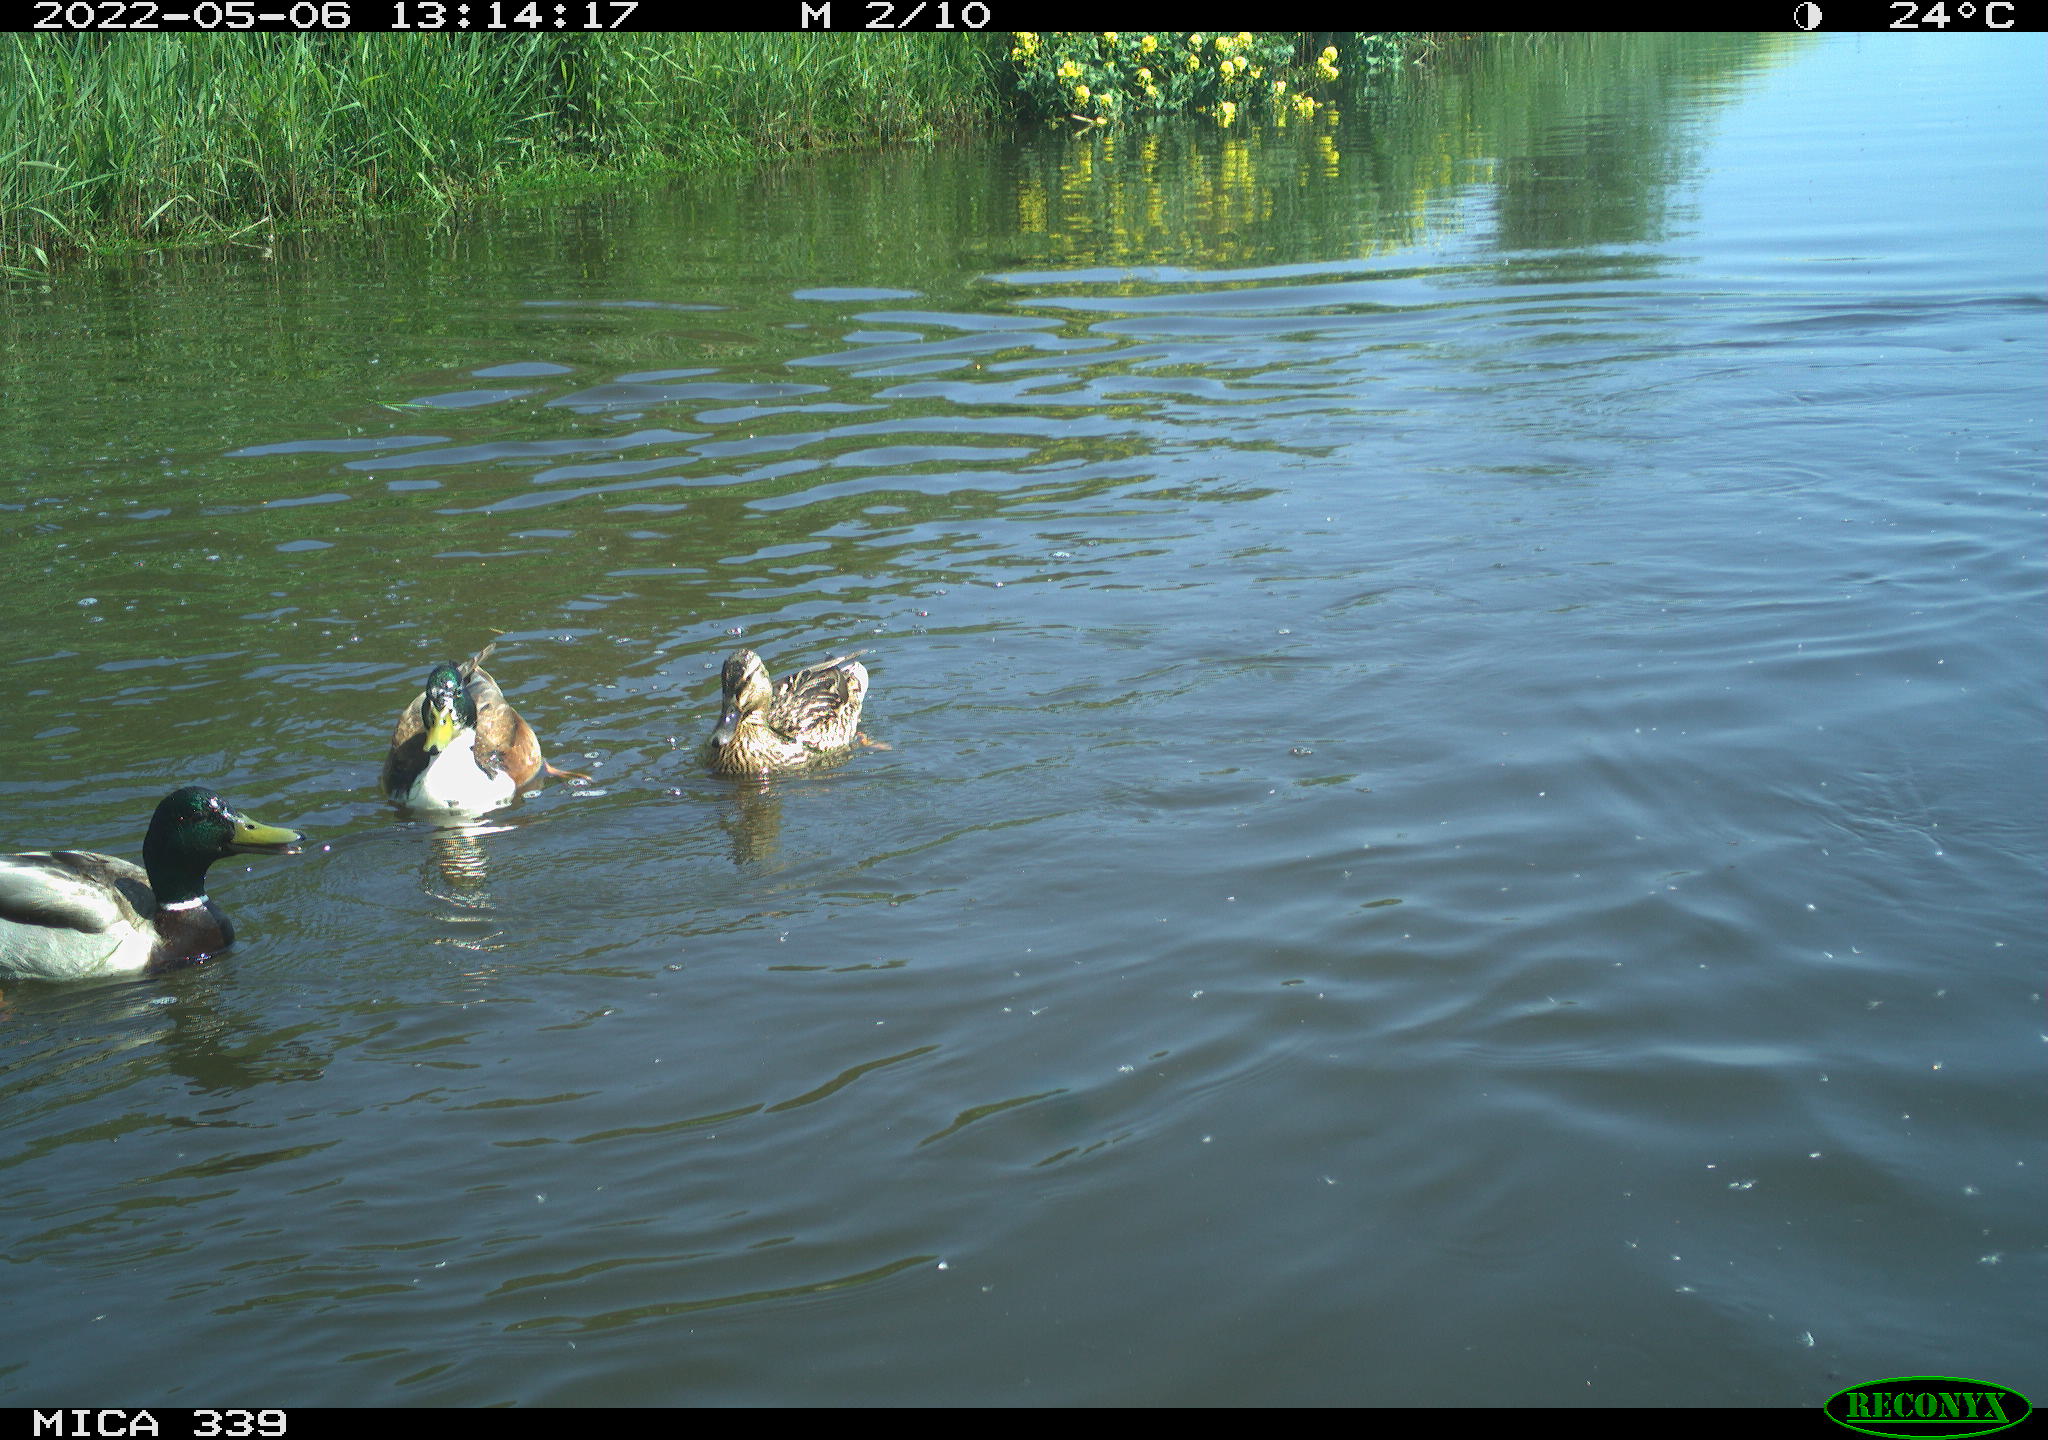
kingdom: Animalia
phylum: Chordata
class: Aves
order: Anseriformes
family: Anatidae
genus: Mareca
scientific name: Mareca strepera
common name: Gadwall
